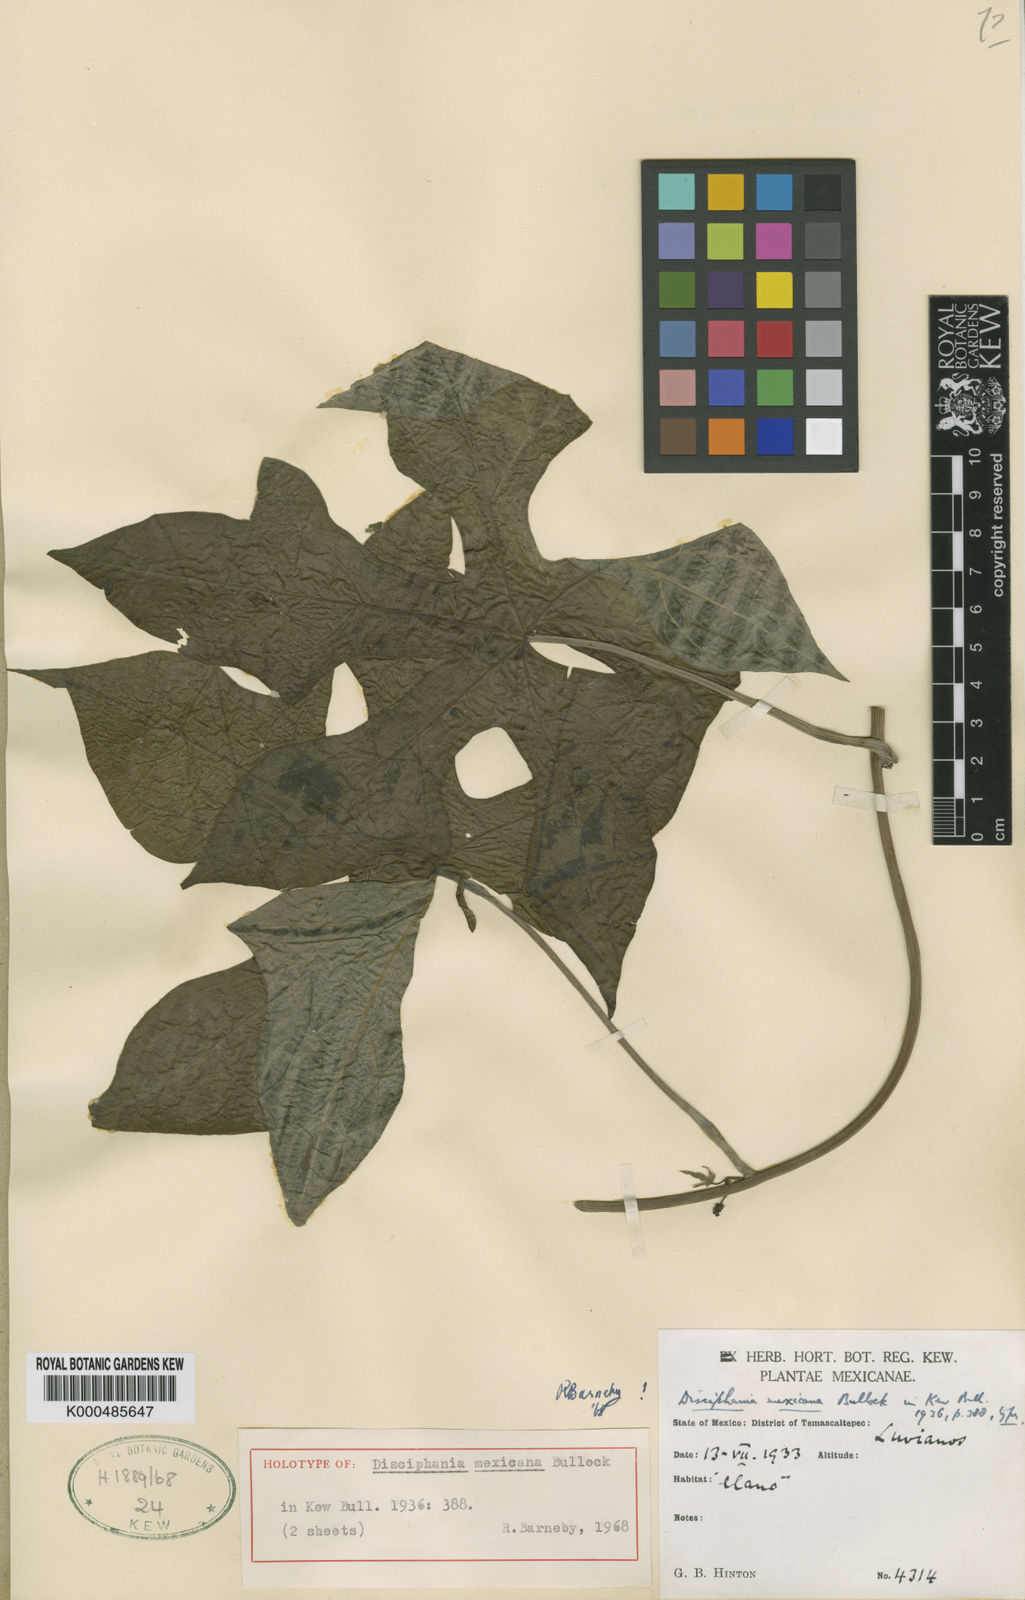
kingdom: Plantae
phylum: Tracheophyta
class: Magnoliopsida
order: Ranunculales
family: Menispermaceae
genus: Disciphania
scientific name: Disciphania mexicana
